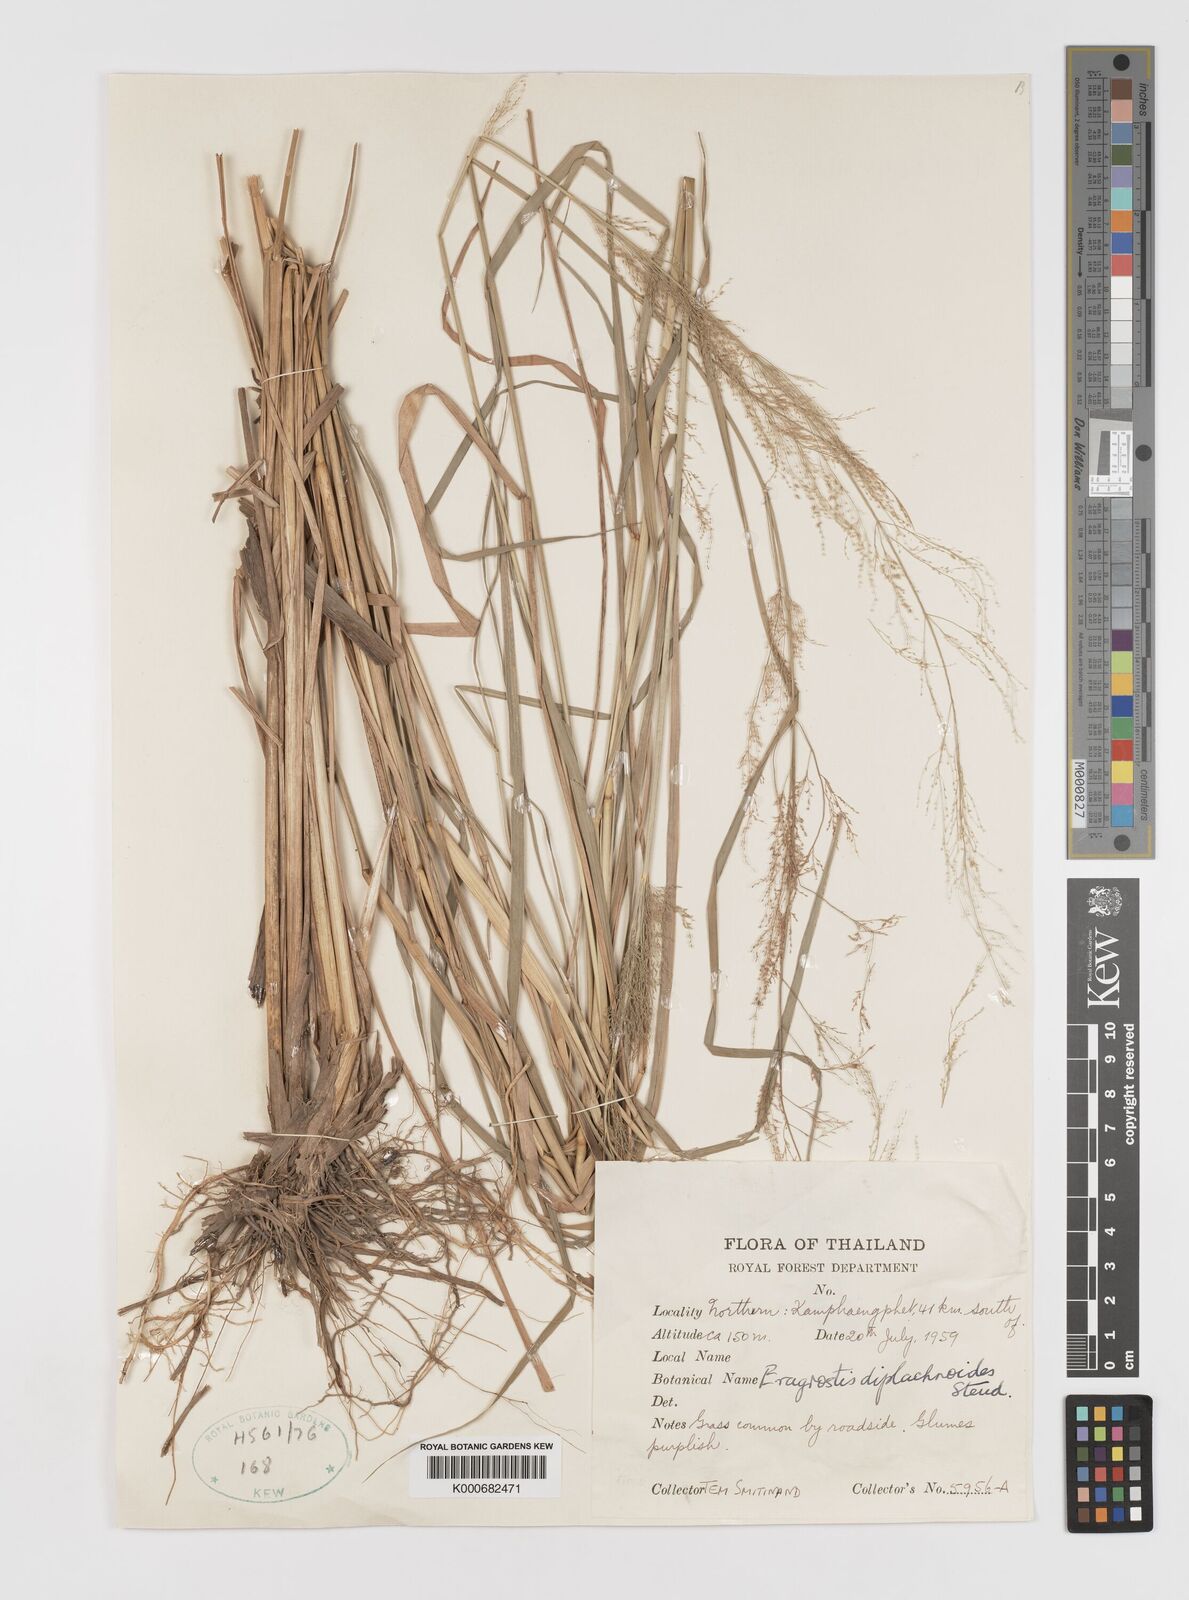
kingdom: Plantae
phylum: Tracheophyta
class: Liliopsida
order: Poales
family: Poaceae
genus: Eragrostis
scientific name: Eragrostis japonica
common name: Pond lovegrass
